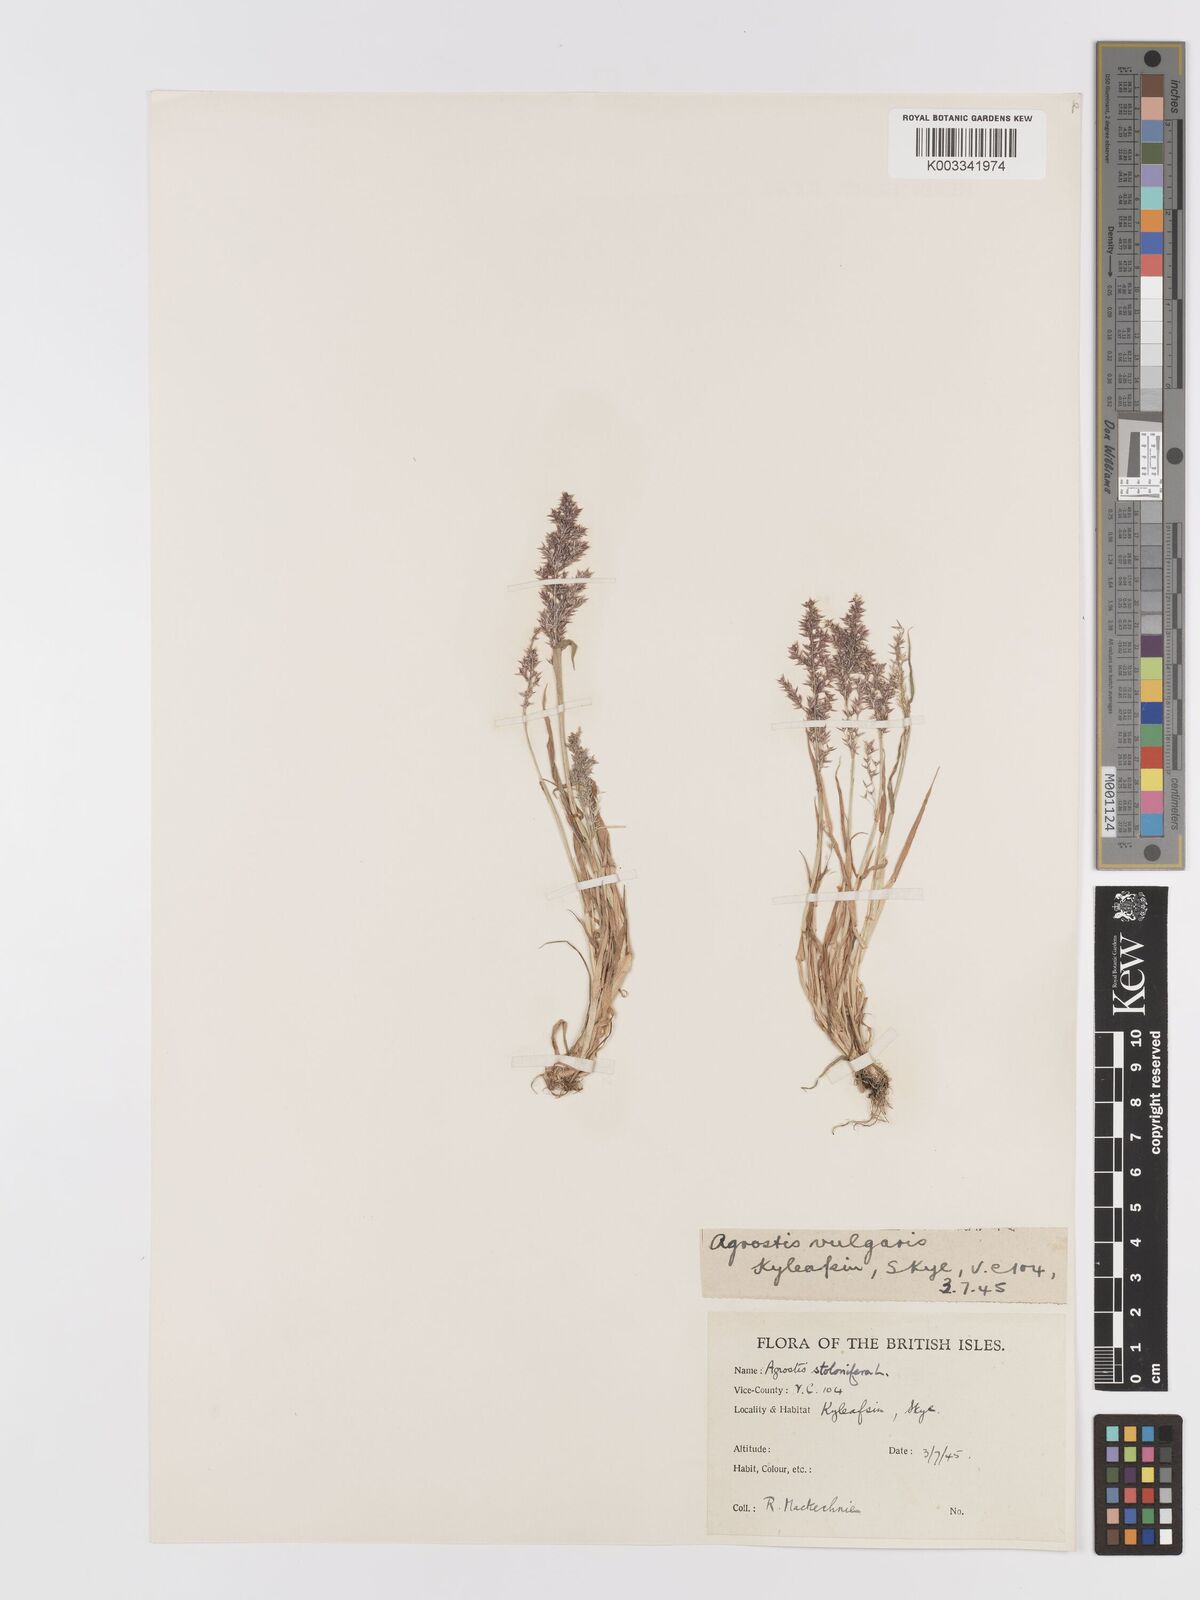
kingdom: Plantae
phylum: Tracheophyta
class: Liliopsida
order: Poales
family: Poaceae
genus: Agrostis
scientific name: Agrostis stolonifera
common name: Creeping bentgrass
